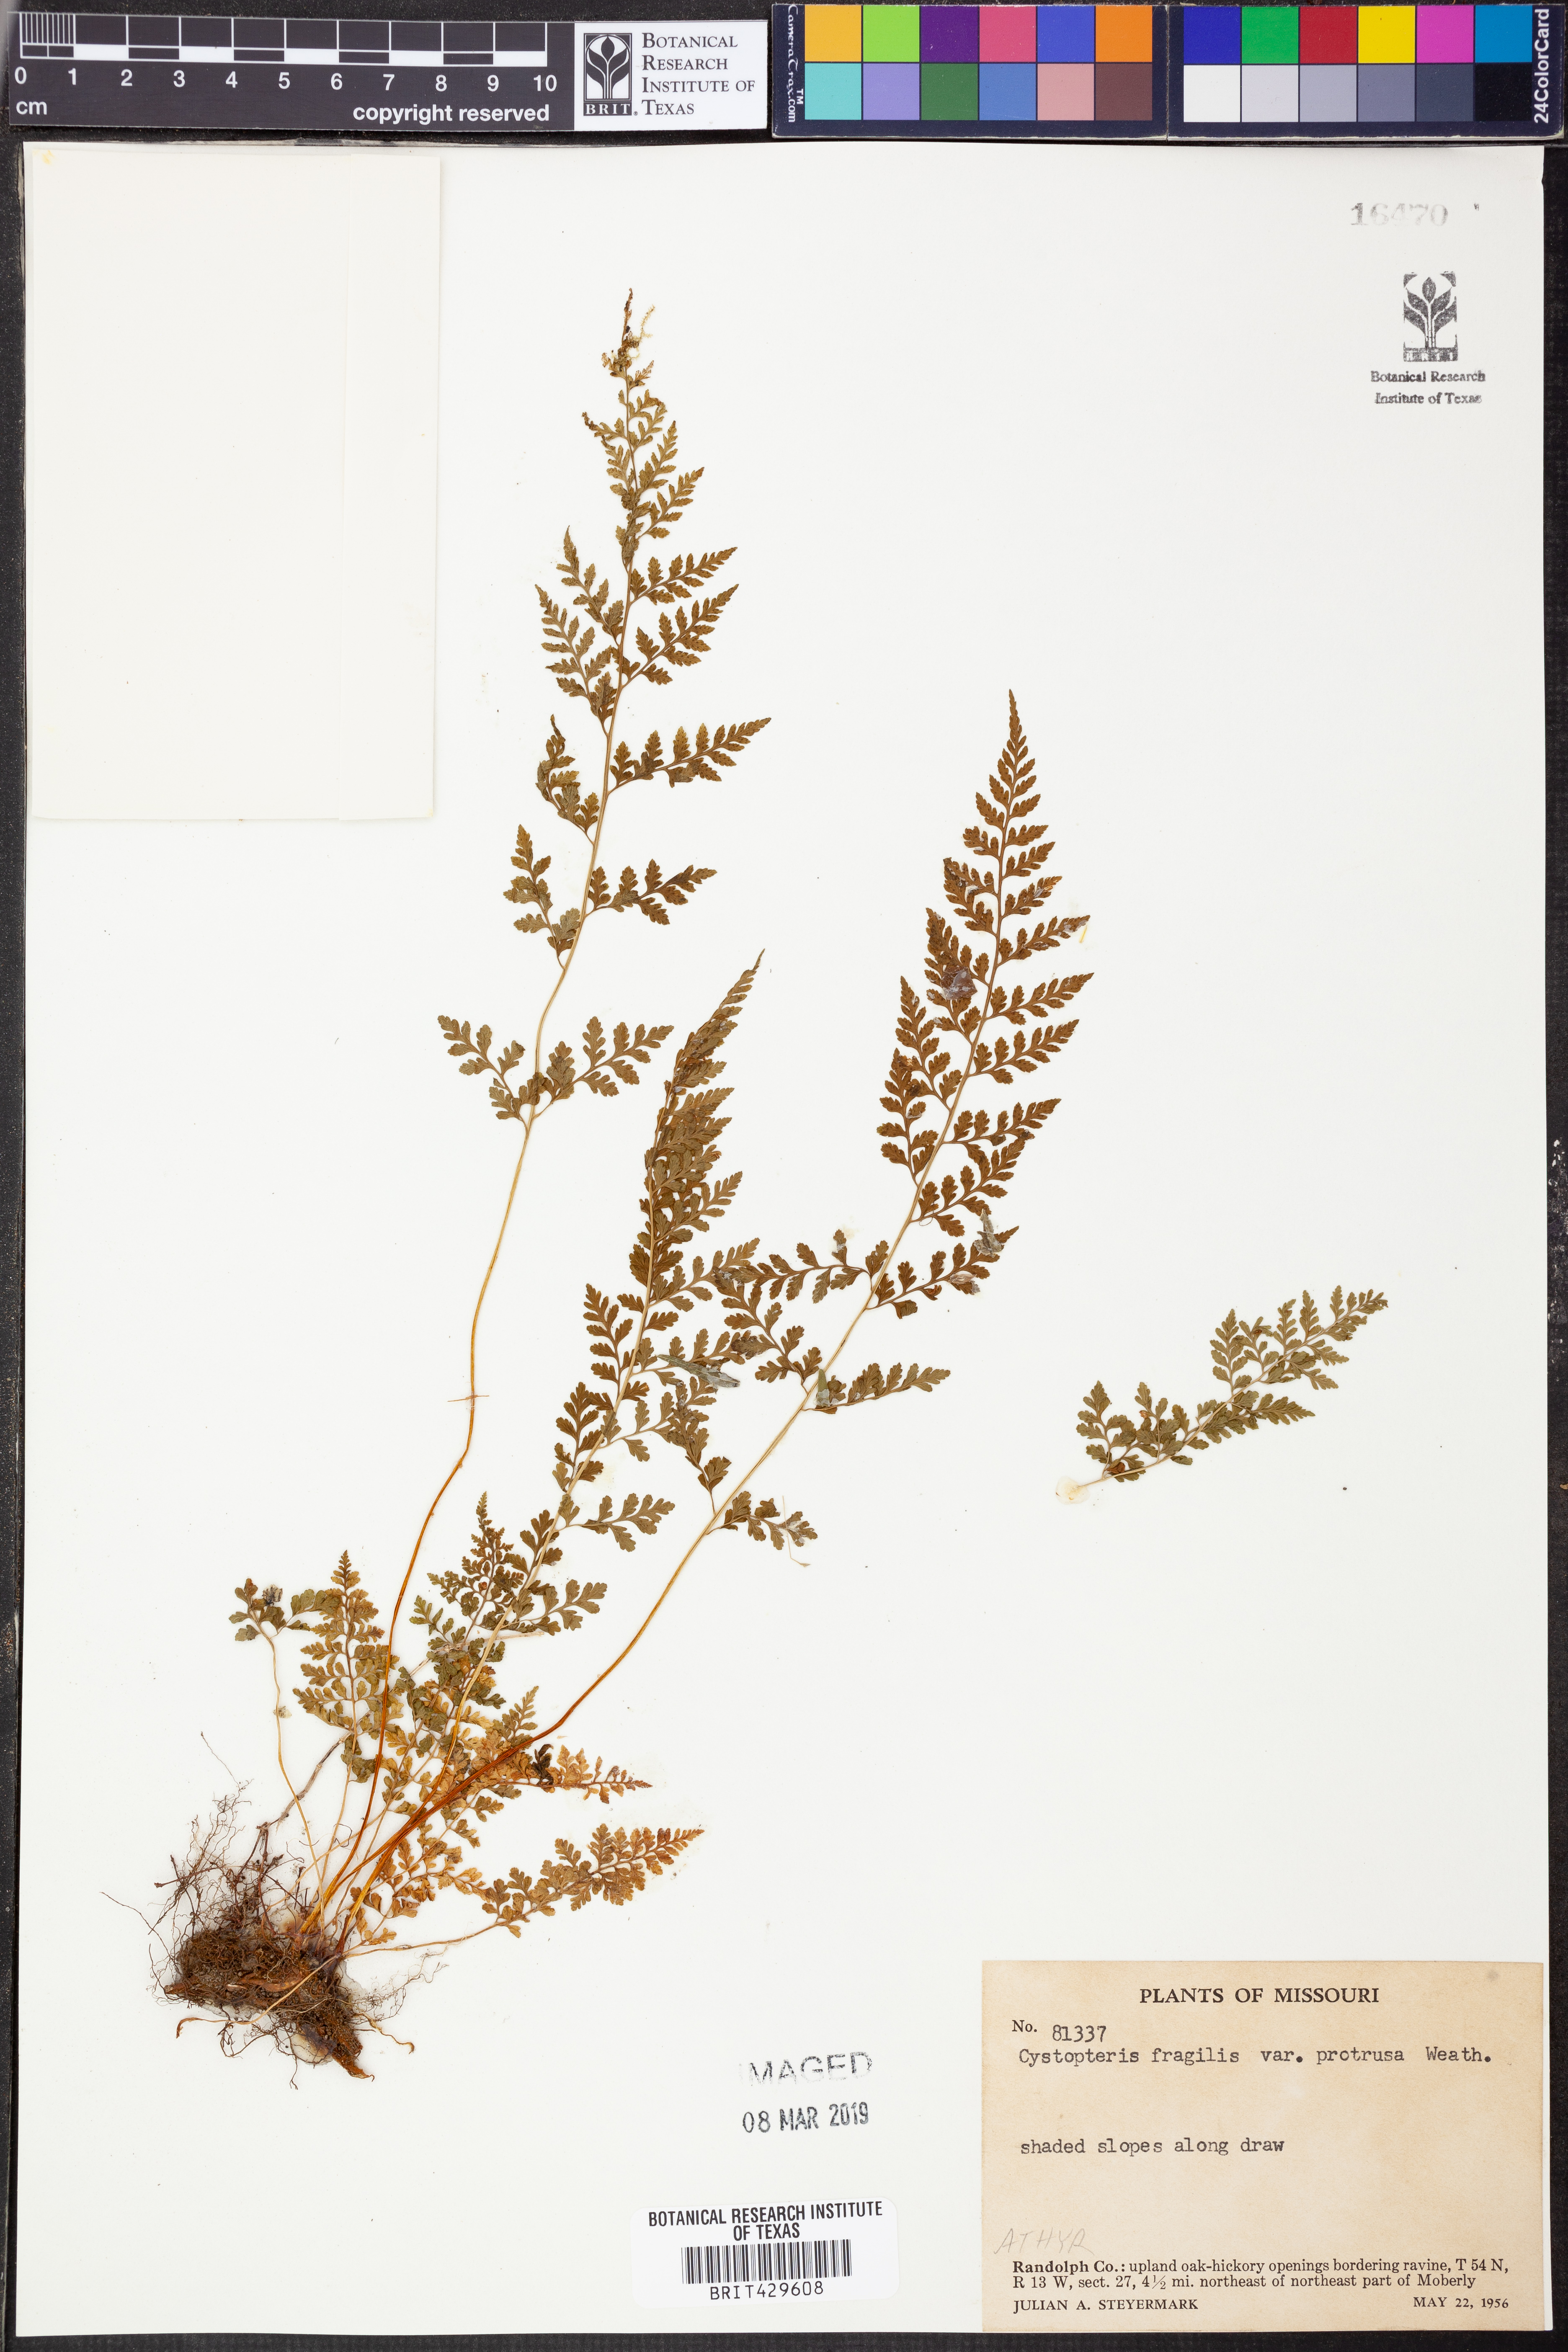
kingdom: Plantae
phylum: Tracheophyta
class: Polypodiopsida
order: Polypodiales
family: Cystopteridaceae
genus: Cystopteris
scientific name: Cystopteris protrusa
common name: Lowland brittle fern
